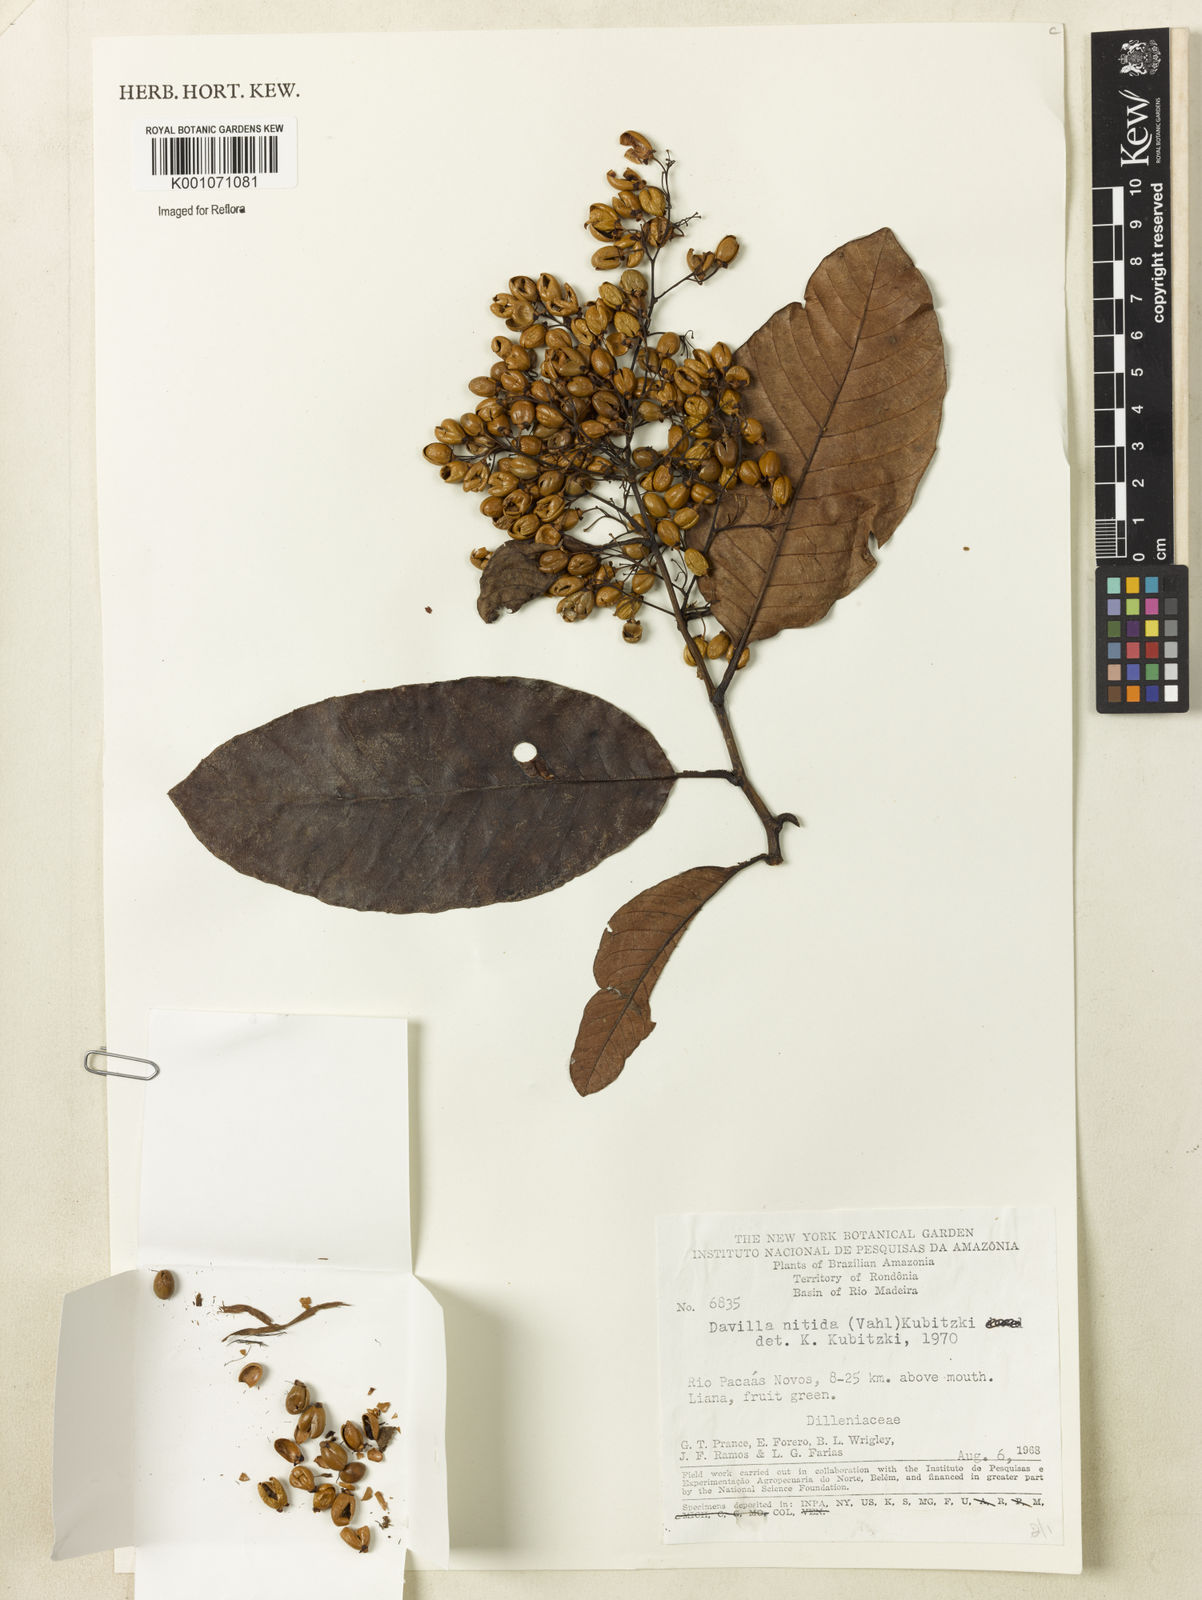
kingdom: Plantae
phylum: Tracheophyta
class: Magnoliopsida
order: Dilleniales
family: Dilleniaceae
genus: Davilla
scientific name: Davilla nitida
